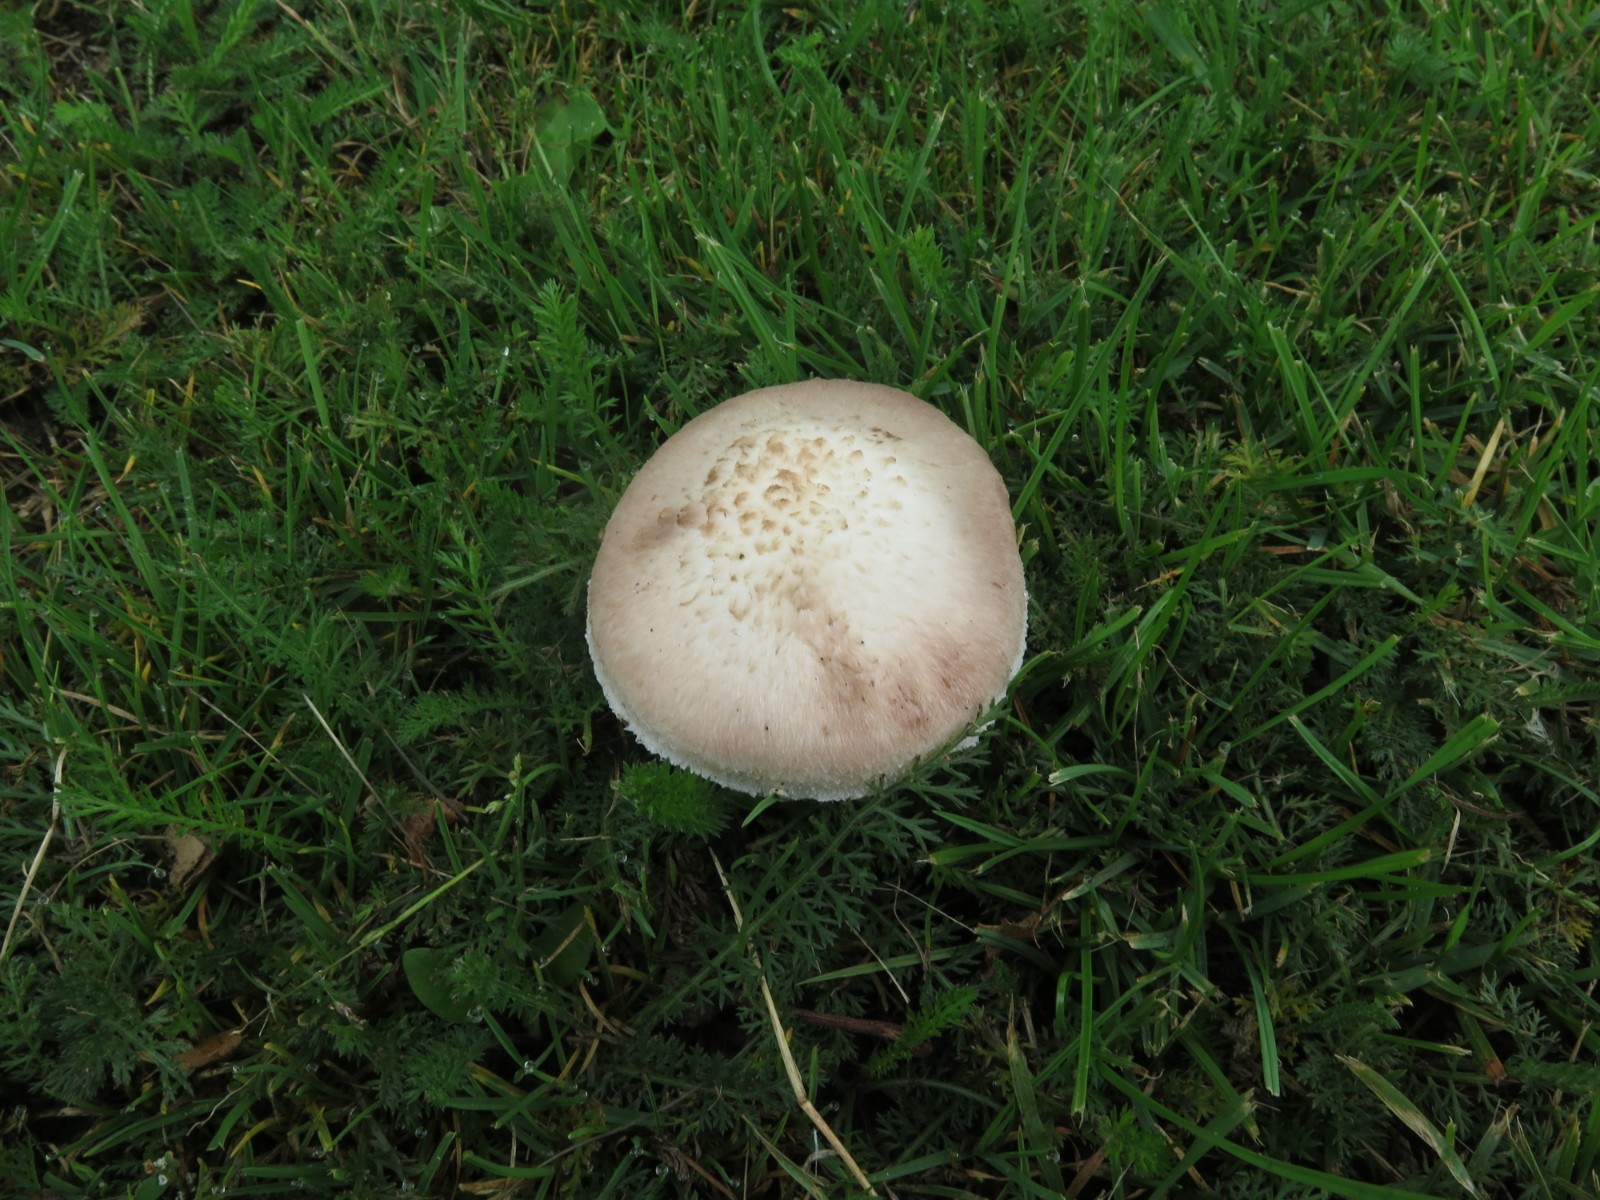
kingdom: Fungi
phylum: Basidiomycota
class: Agaricomycetes
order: Agaricales
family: Agaricaceae
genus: Agaricus
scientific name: Agaricus campestris
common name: mark-champignon
